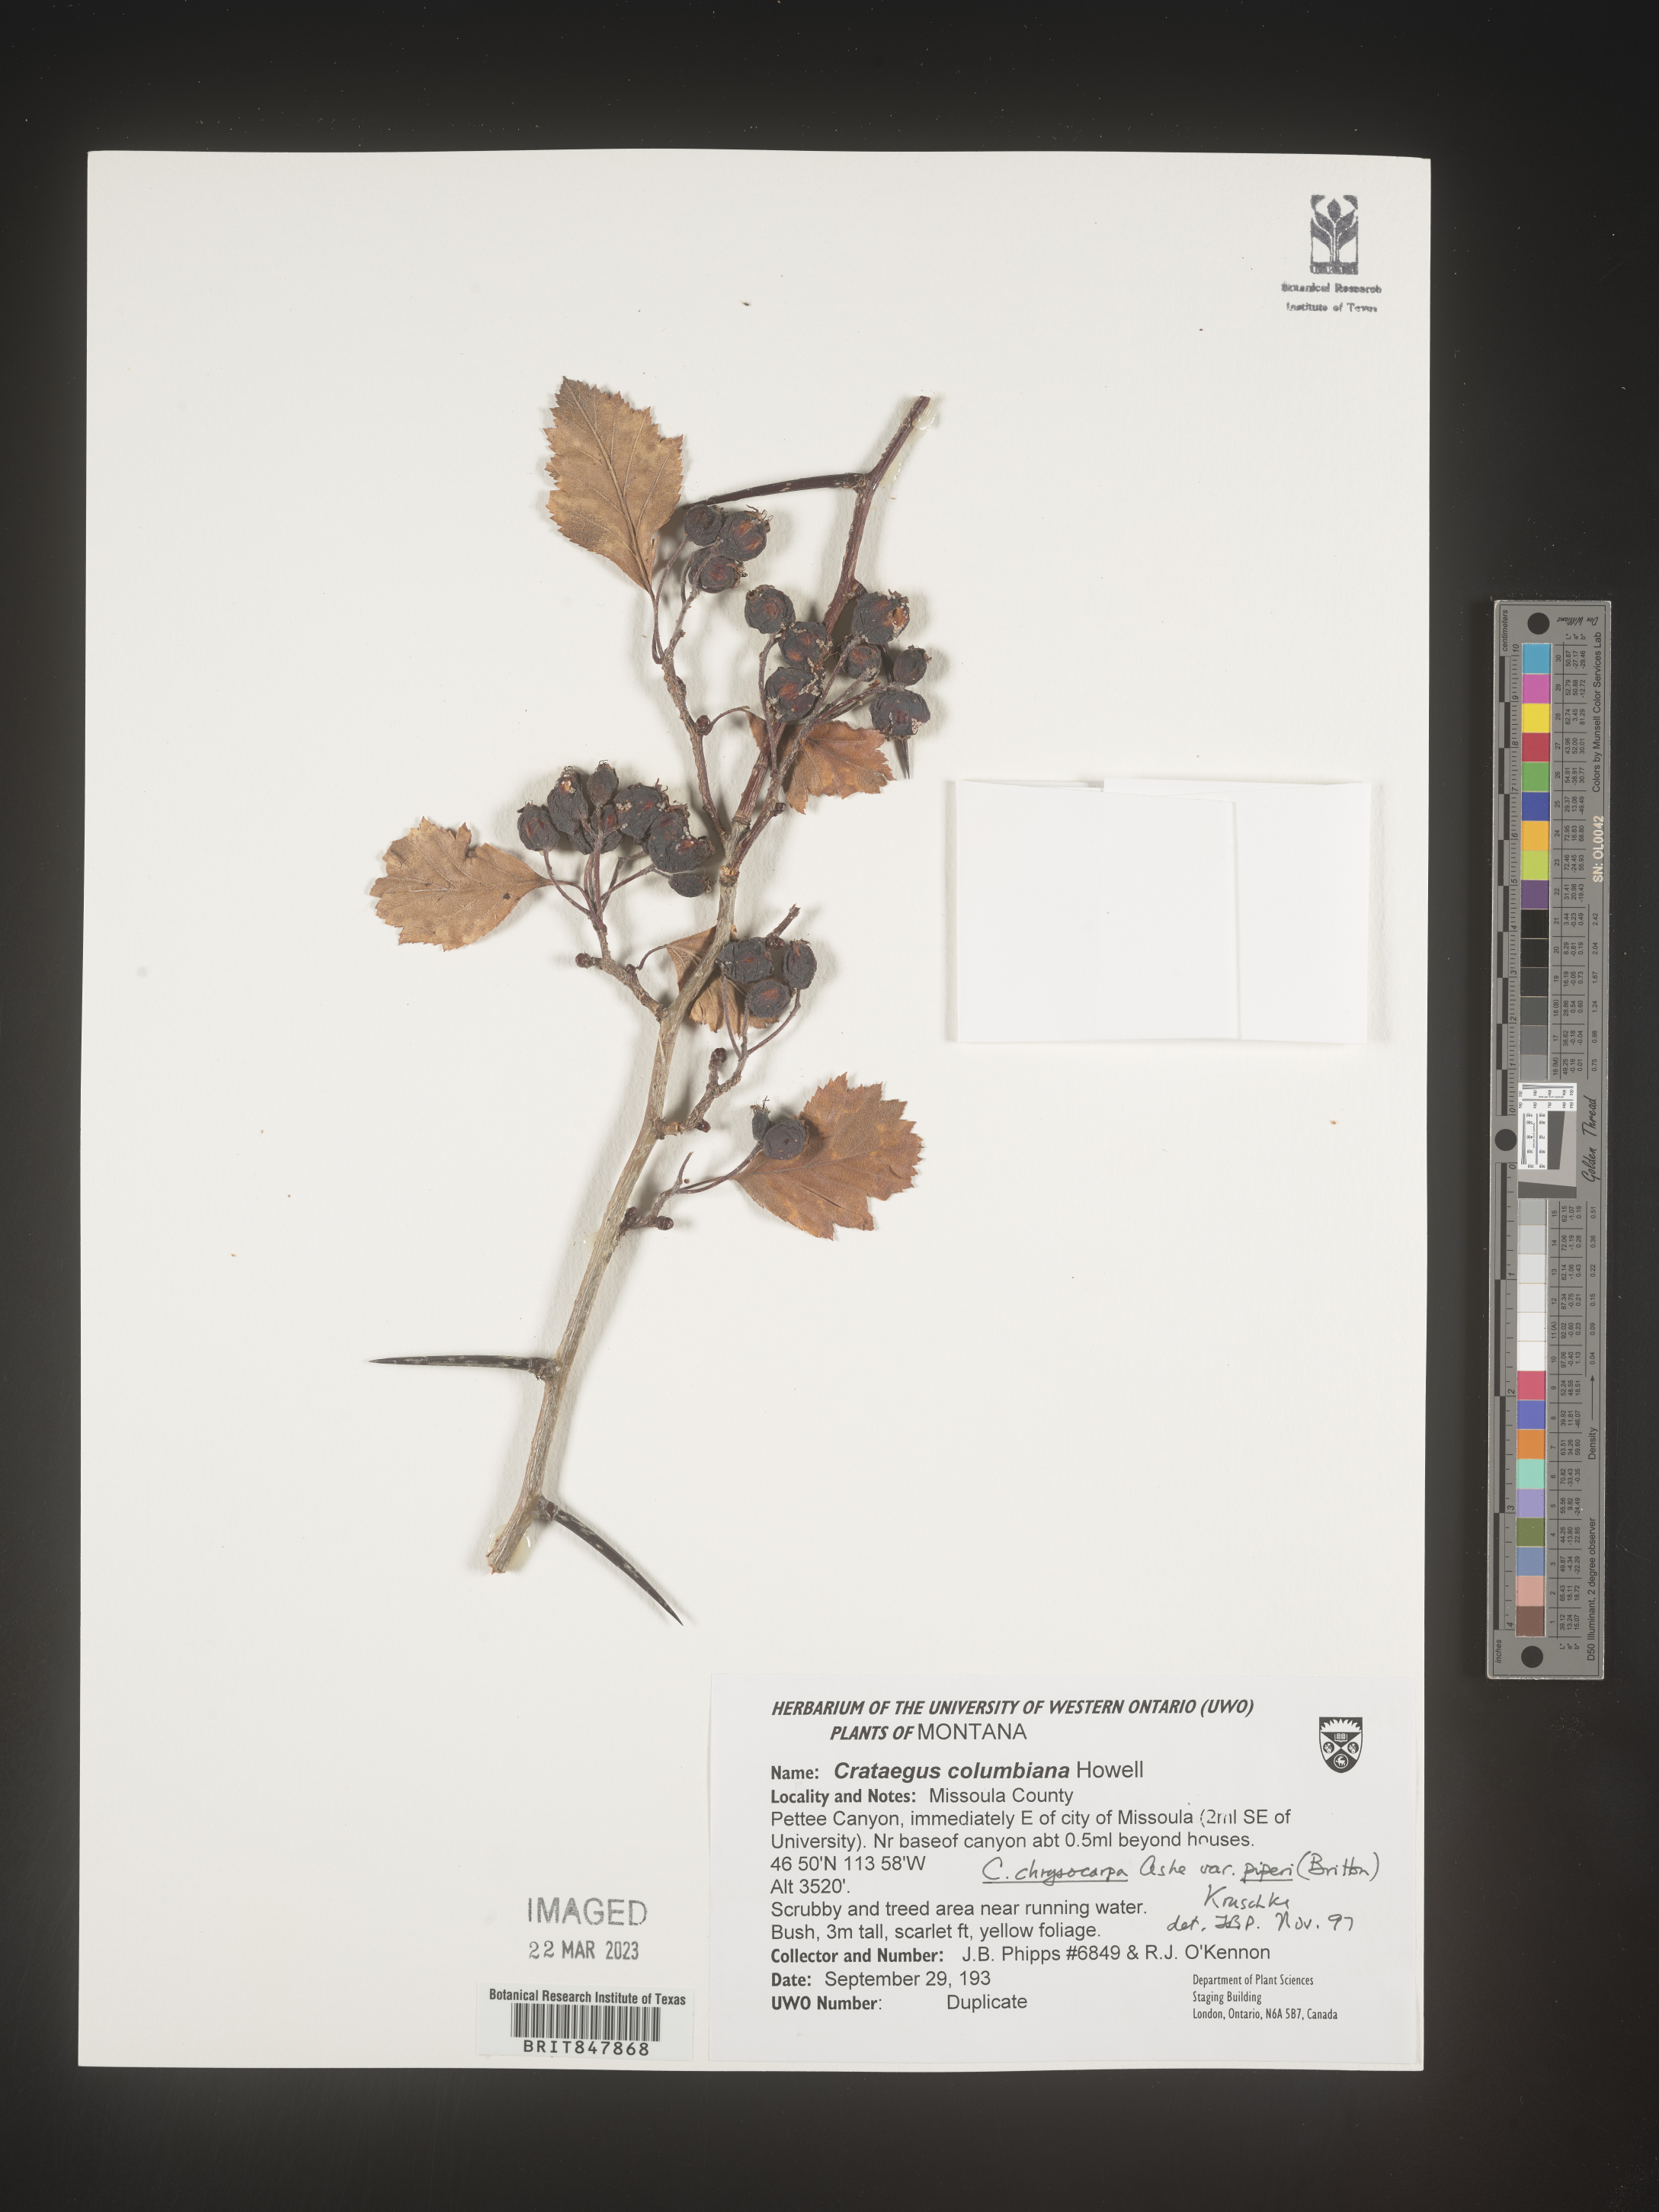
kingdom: Plantae
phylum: Tracheophyta
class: Magnoliopsida
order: Rosales
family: Rosaceae
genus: Crataegus
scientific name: Crataegus columbiana
